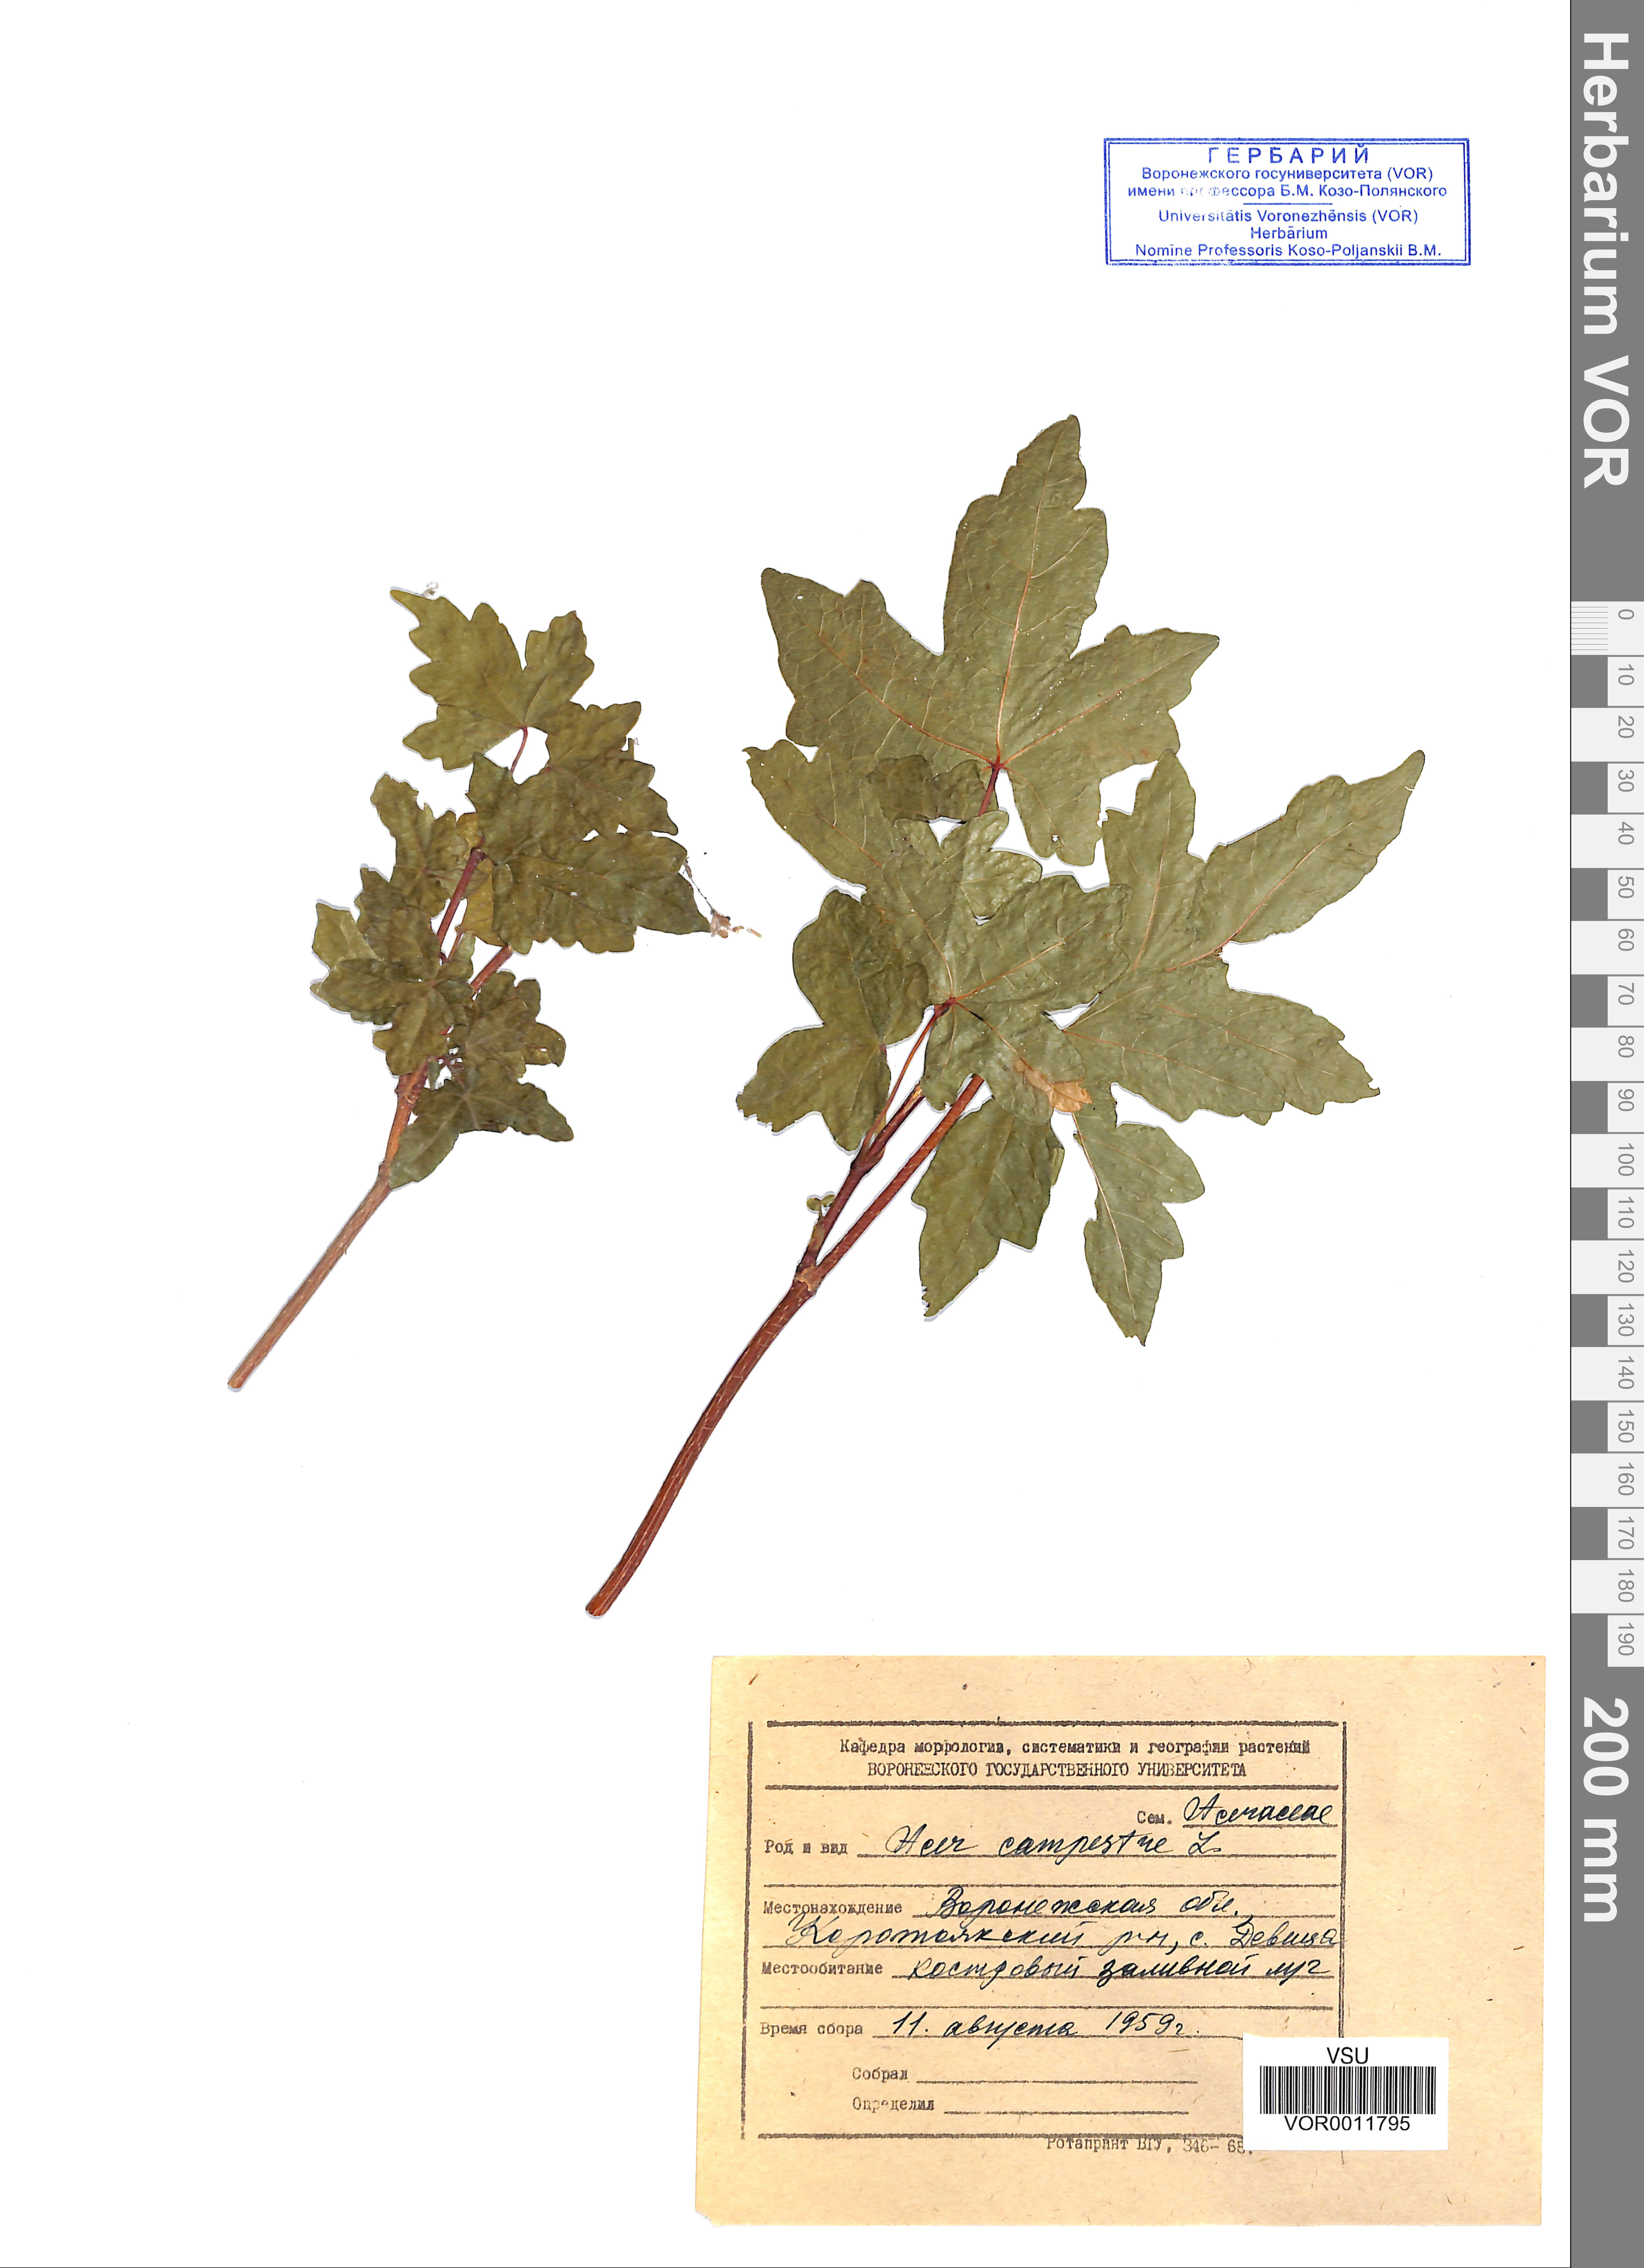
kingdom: Plantae
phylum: Tracheophyta
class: Magnoliopsida
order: Sapindales
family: Sapindaceae
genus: Acer
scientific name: Acer campestre
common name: Field maple
